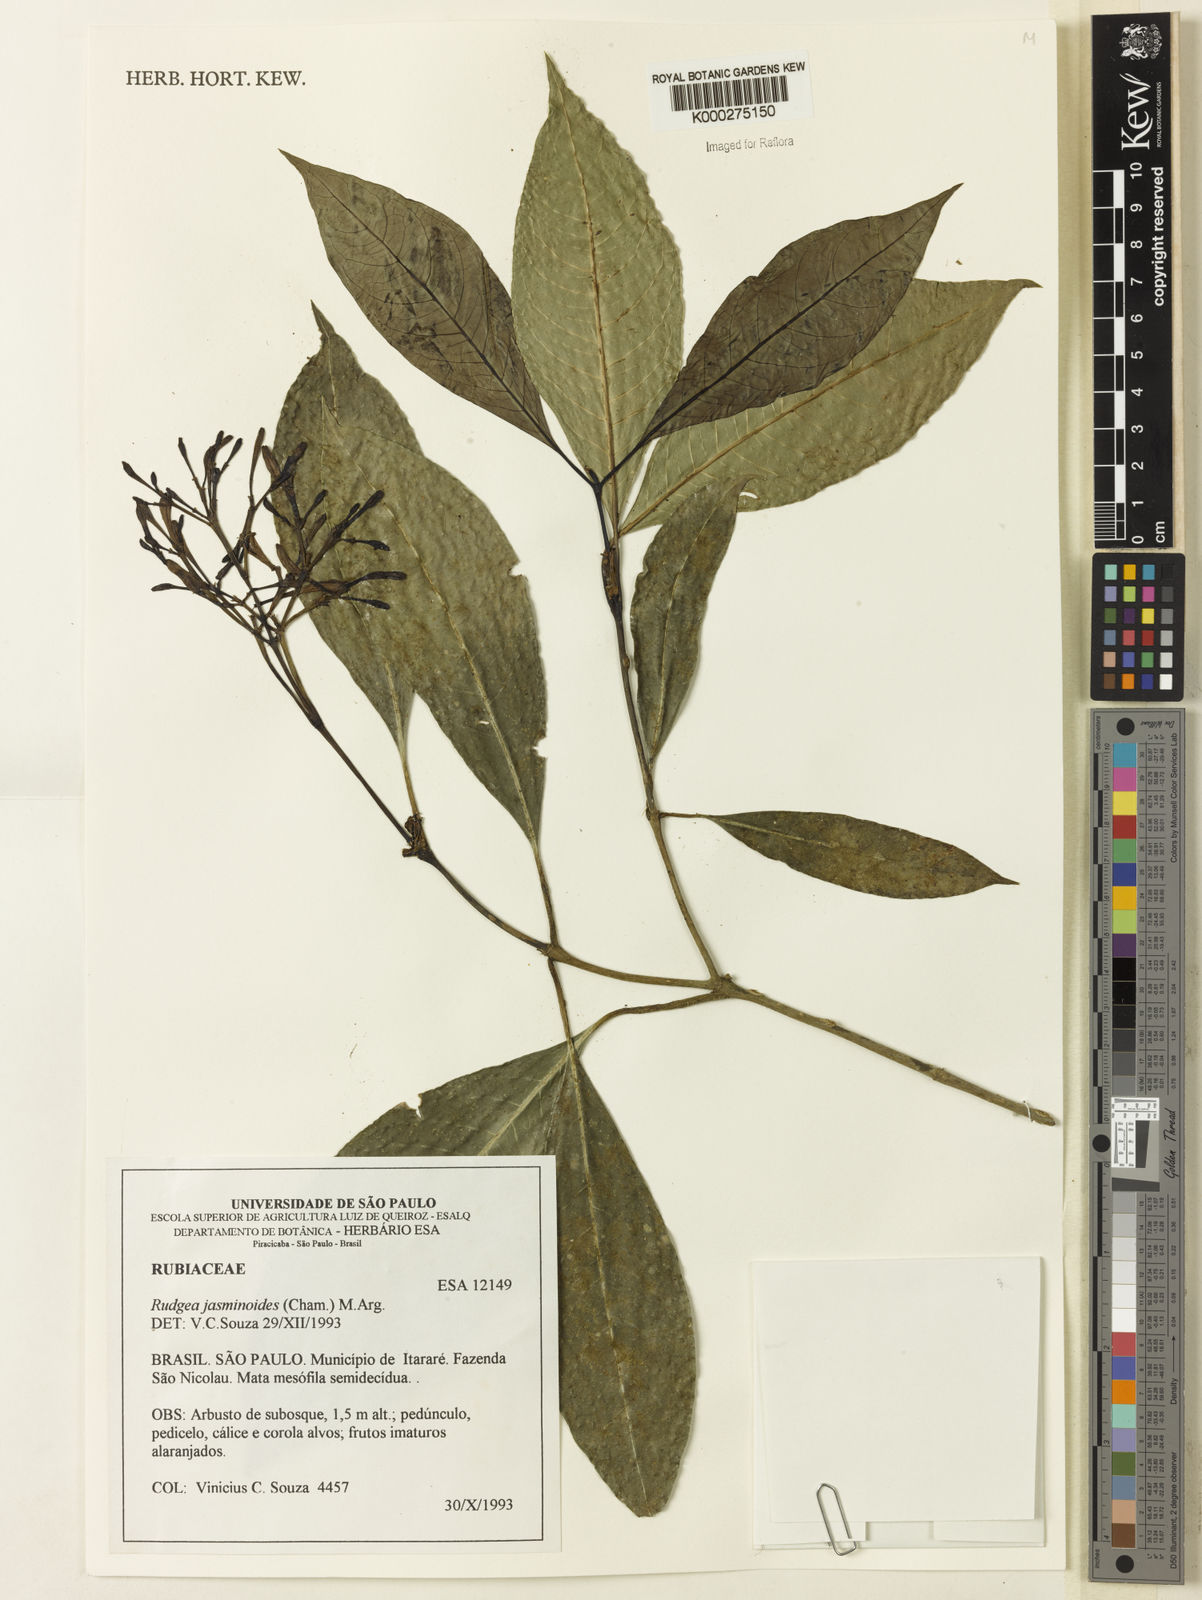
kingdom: Plantae
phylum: Tracheophyta
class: Magnoliopsida
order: Gentianales
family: Rubiaceae
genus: Rudgea
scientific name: Rudgea jasminoides
